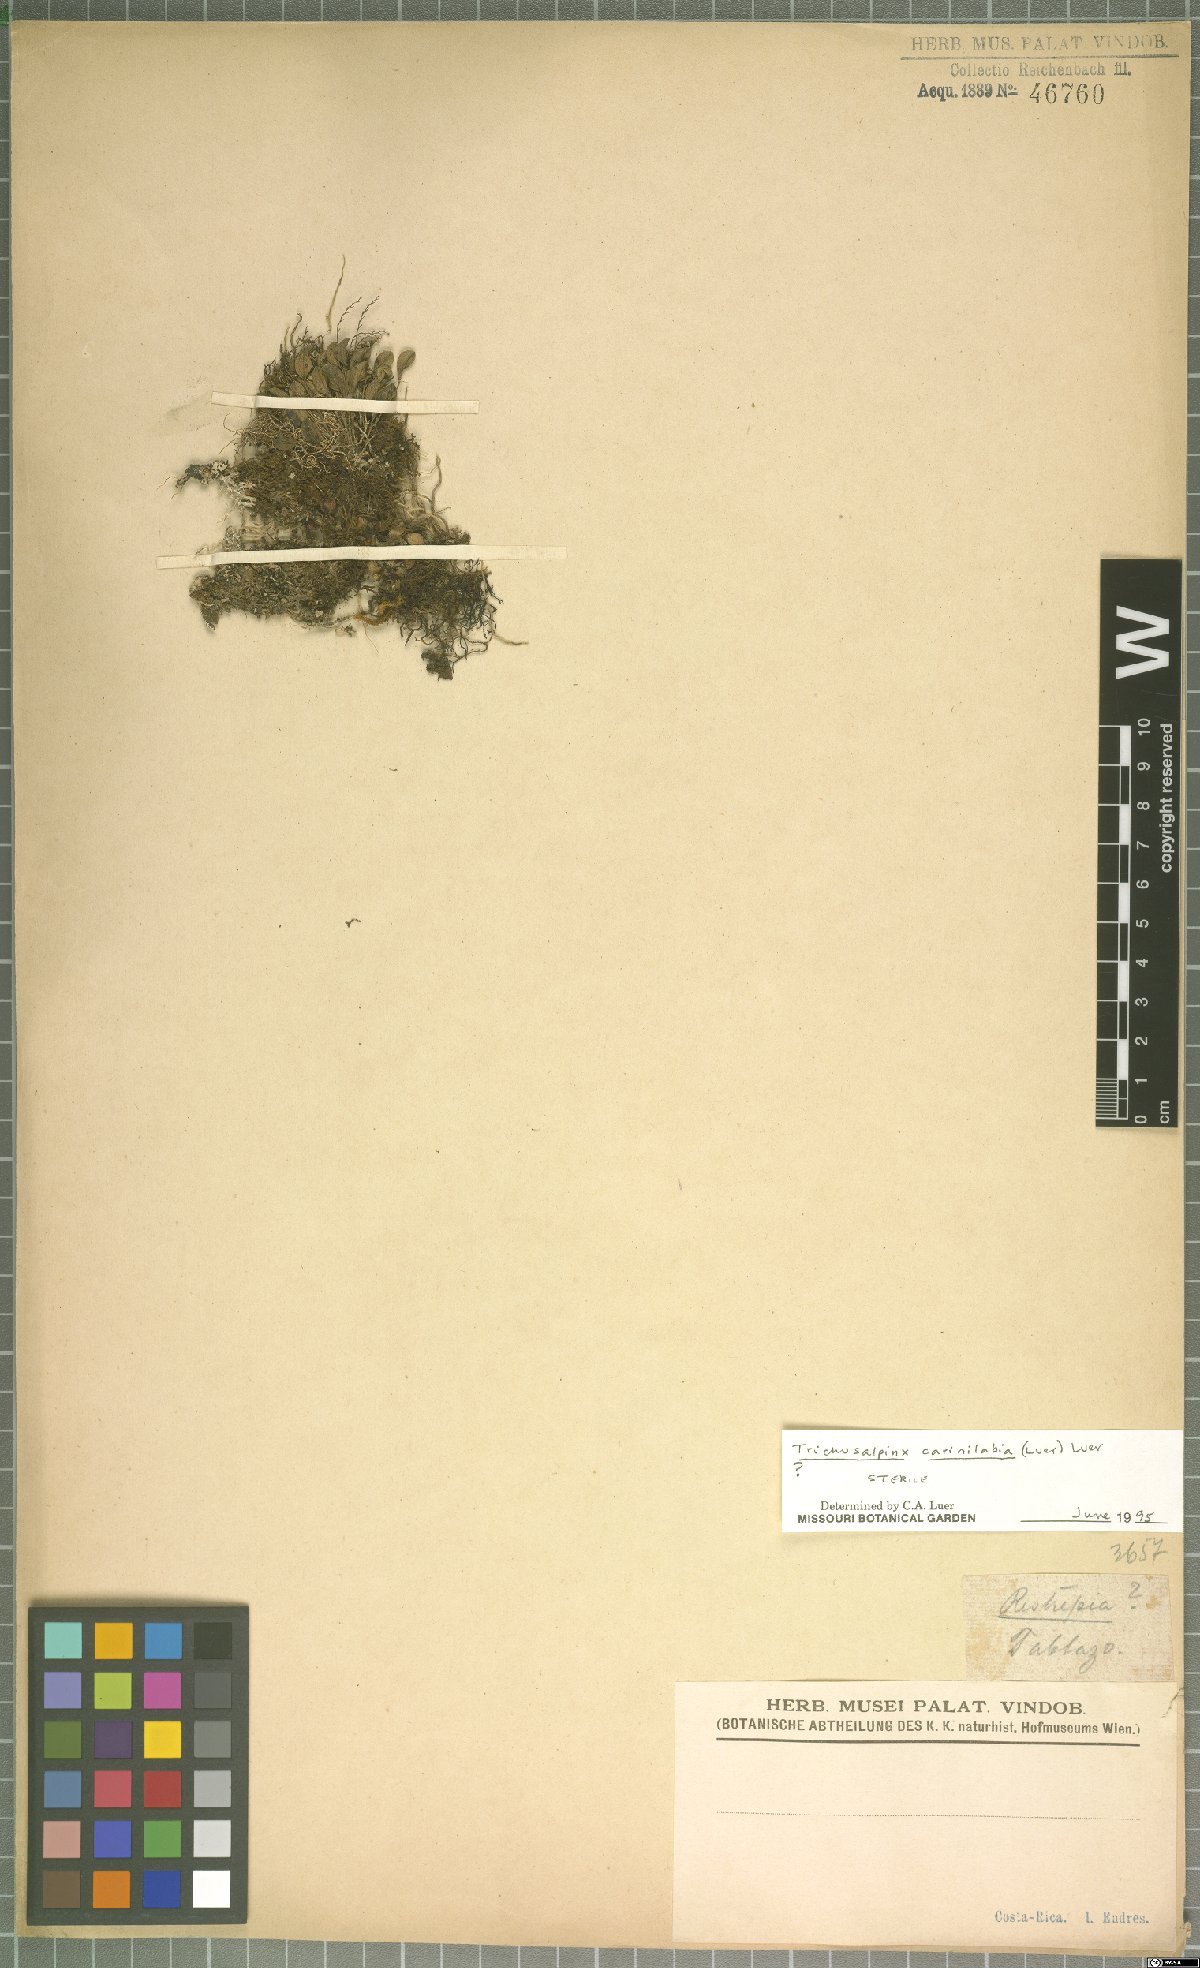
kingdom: Plantae
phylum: Tracheophyta
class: Liliopsida
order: Asparagales
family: Orchidaceae
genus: Trichosalpinx
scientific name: Trichosalpinx carinilabia
